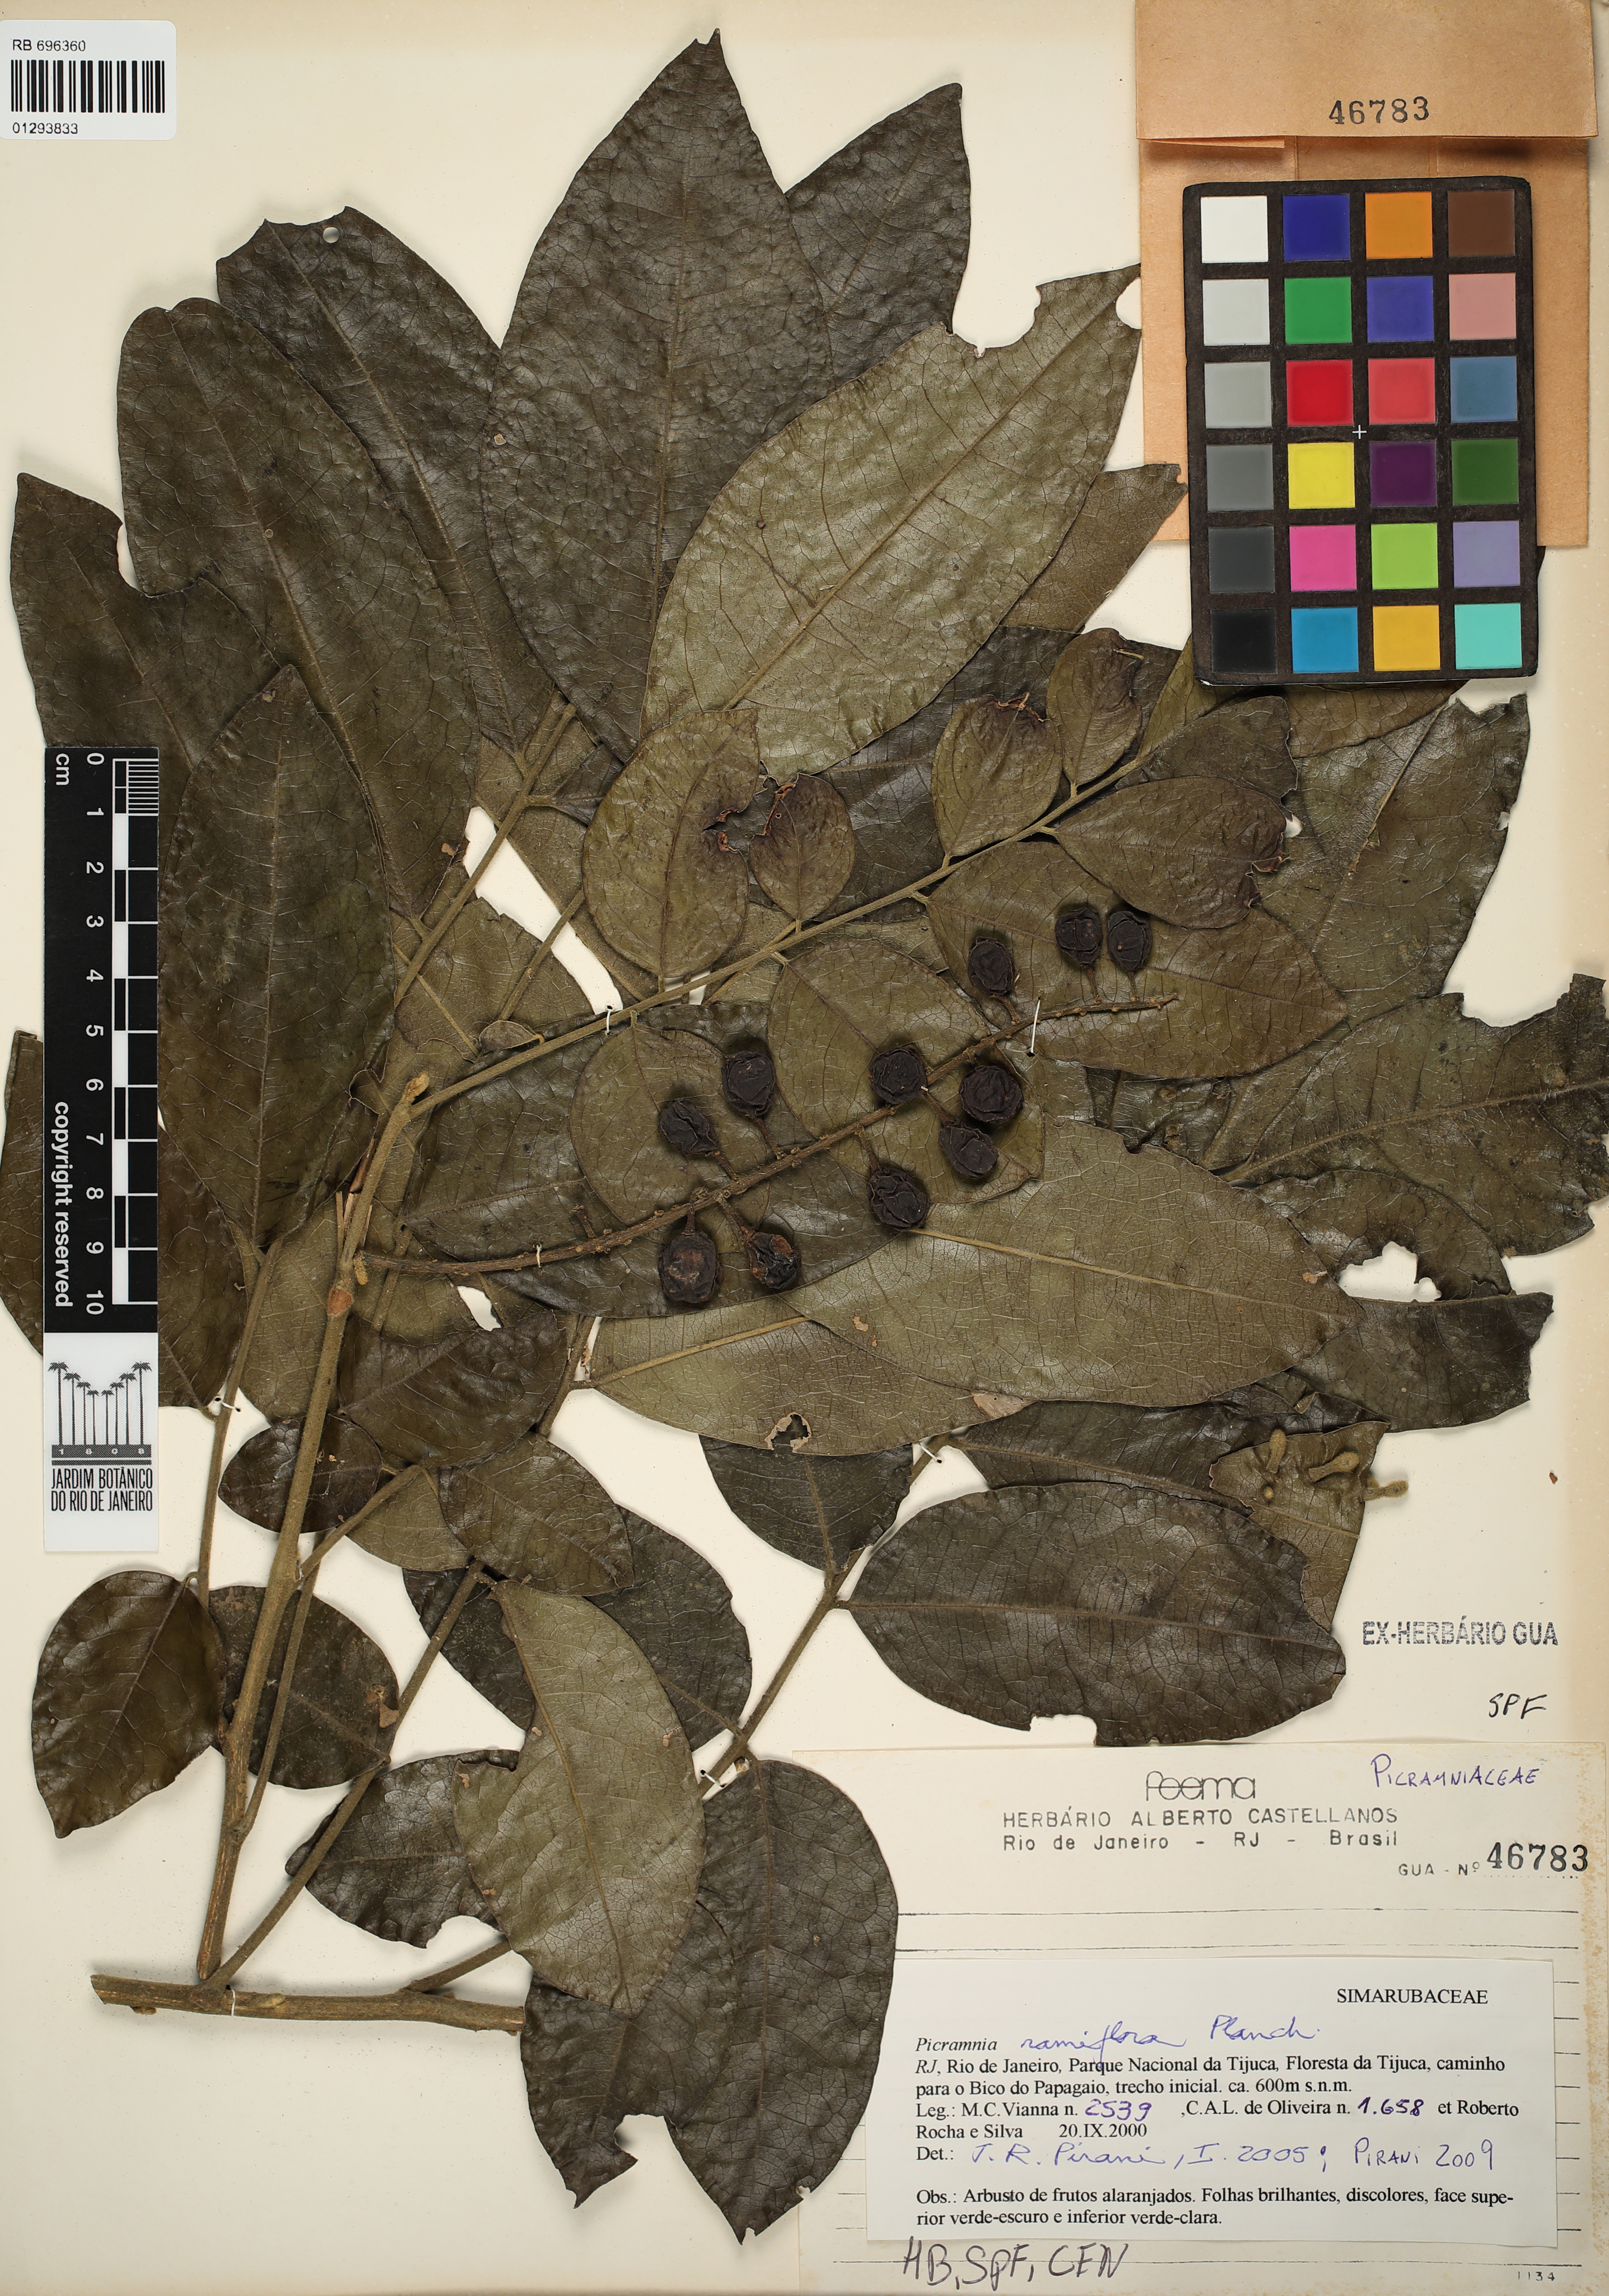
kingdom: Plantae
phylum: Tracheophyta
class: Magnoliopsida
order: Picramniales
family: Picramniaceae
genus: Picramnia
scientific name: Picramnia ramiflora
